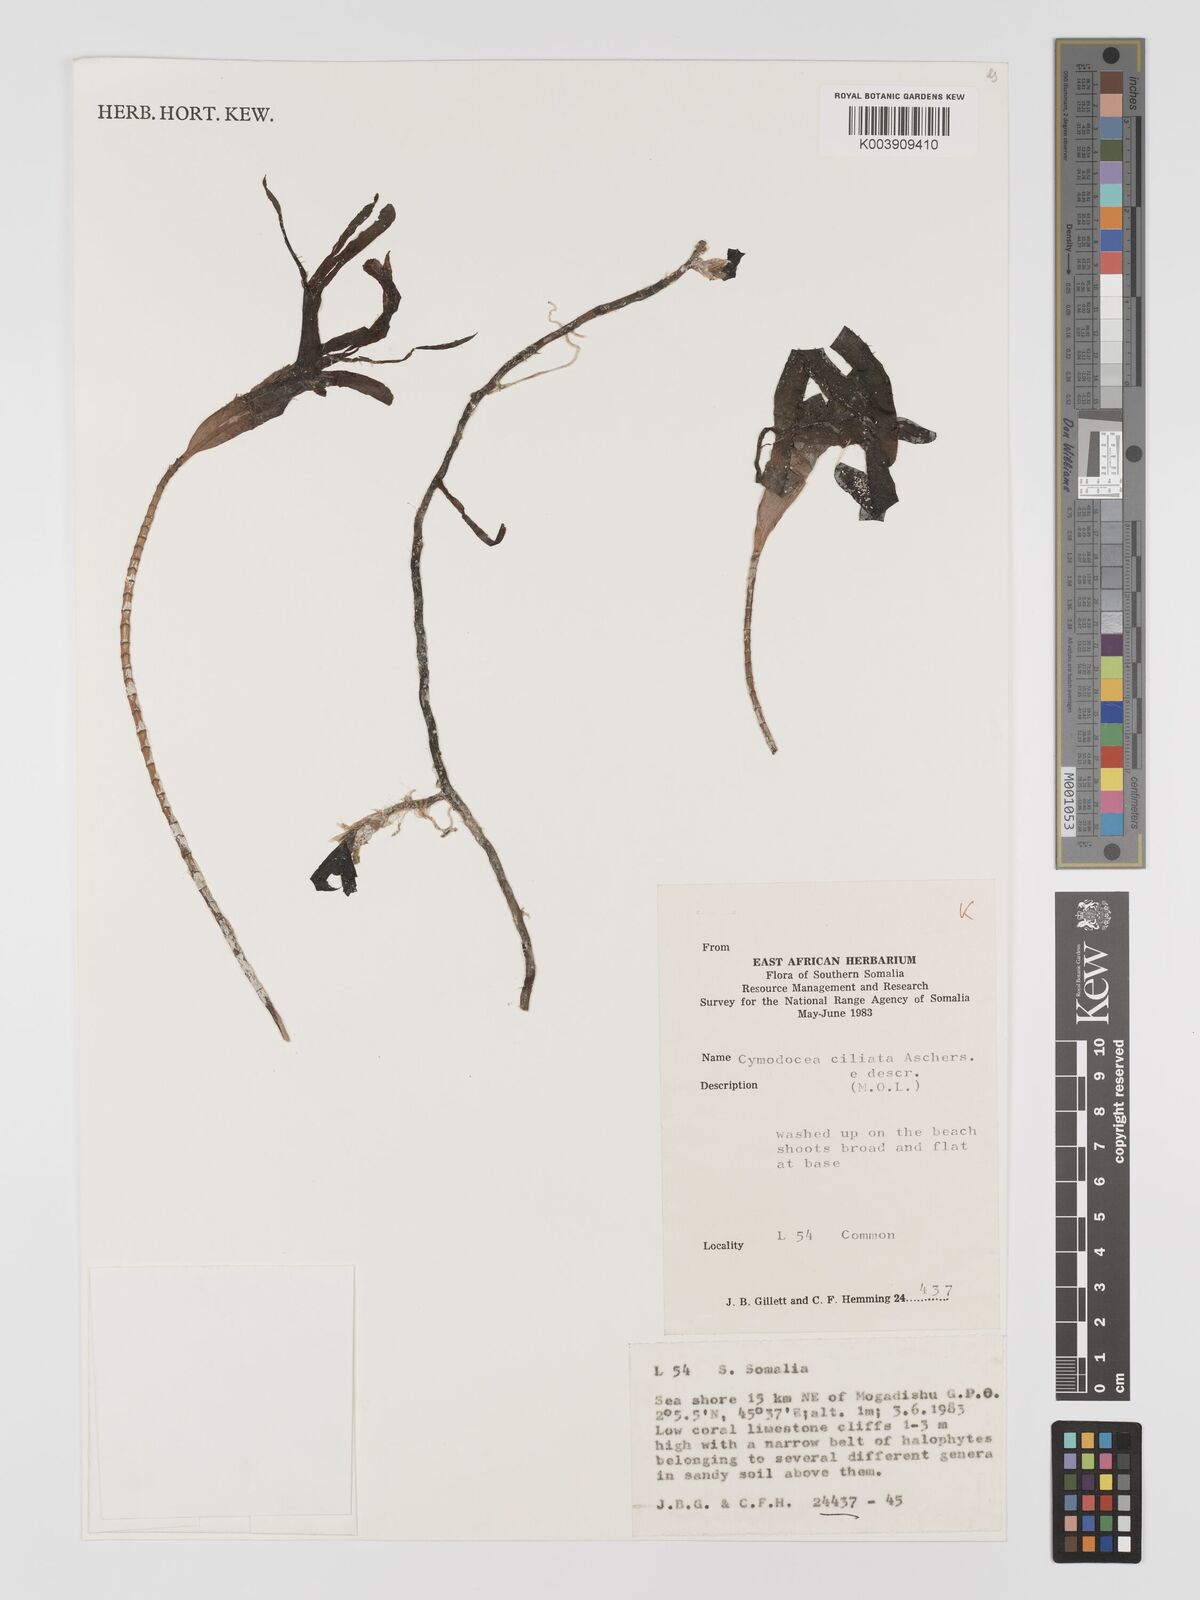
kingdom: Plantae
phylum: Tracheophyta
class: Liliopsida
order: Alismatales
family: Cymodoceaceae
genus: Thalassodendron
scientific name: Thalassodendron ciliatum
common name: Species code: tc
